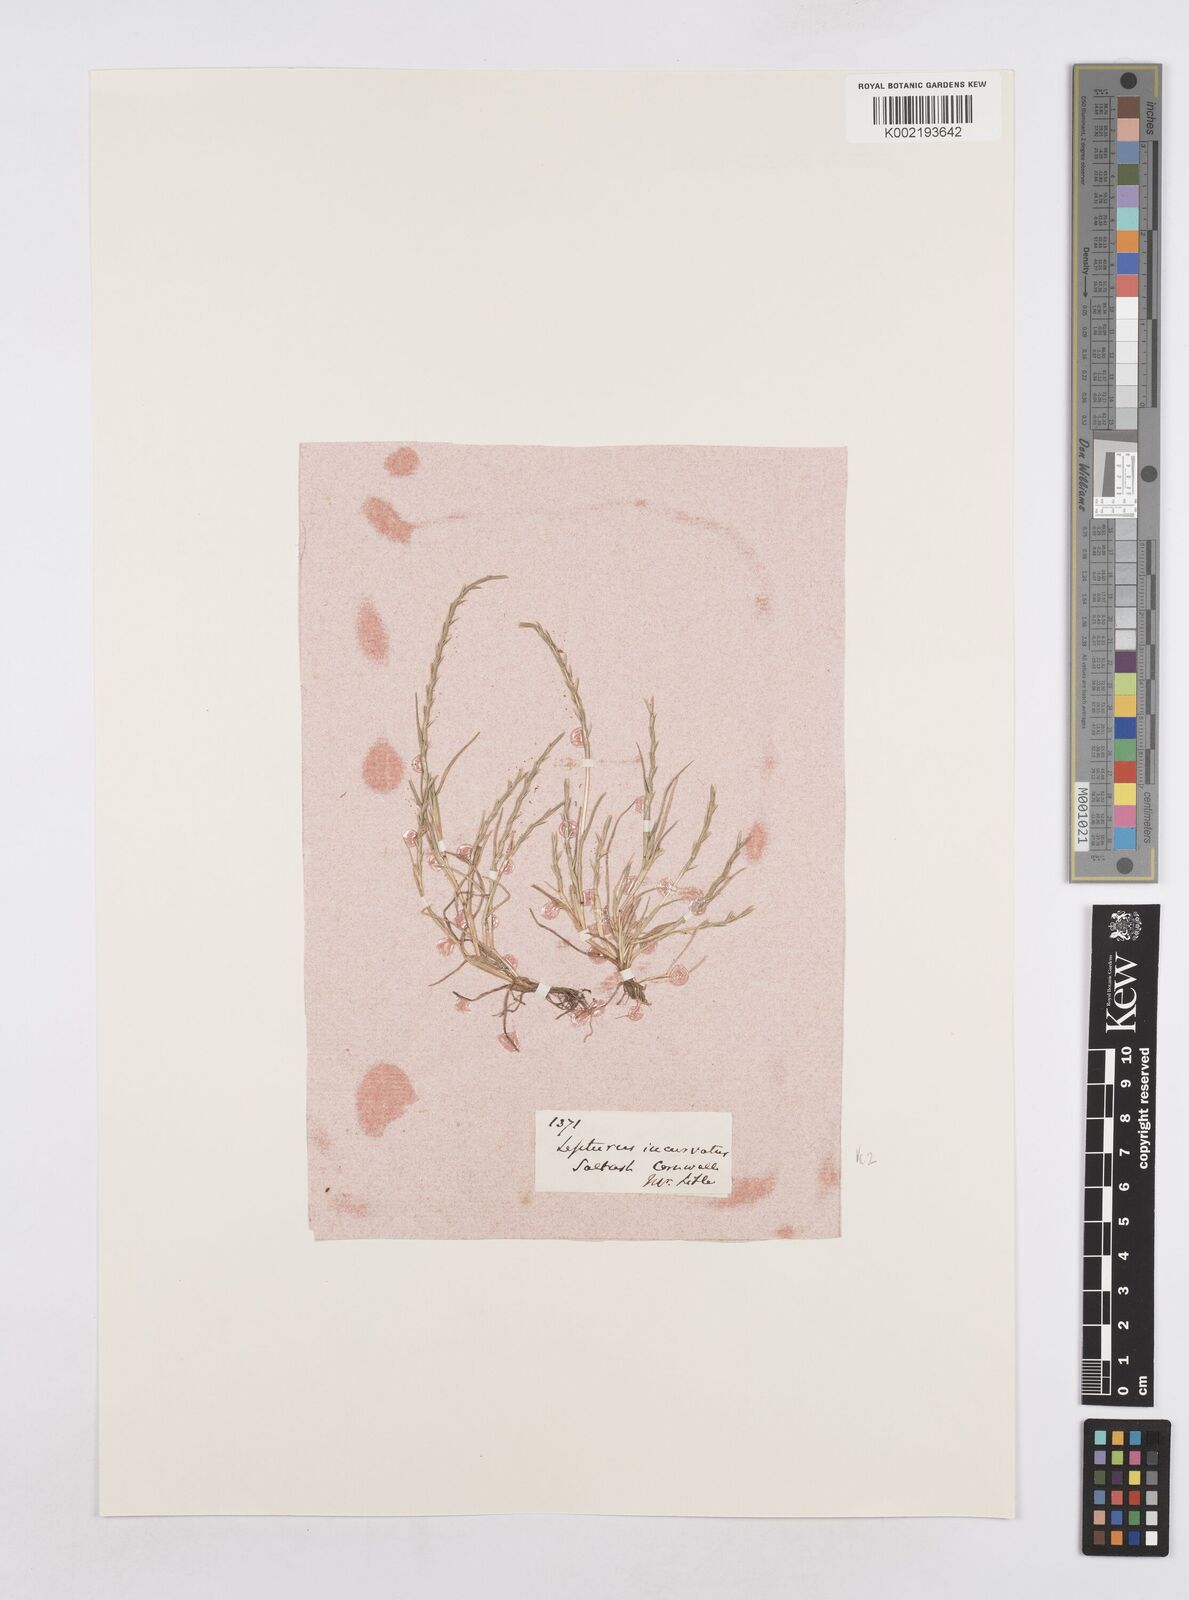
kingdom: Plantae
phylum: Tracheophyta
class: Liliopsida
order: Poales
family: Poaceae
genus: Parapholis
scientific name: Parapholis strigosa
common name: Hard-grass
